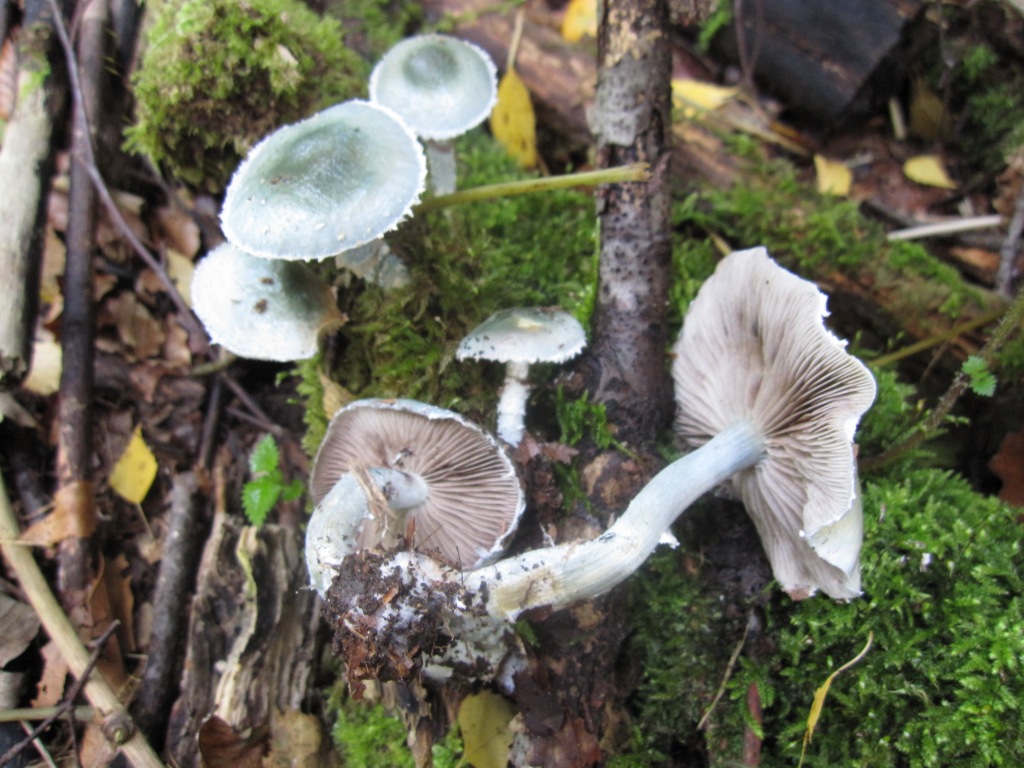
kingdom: Fungi
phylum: Basidiomycota
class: Agaricomycetes
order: Agaricales
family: Strophariaceae
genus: Stropharia
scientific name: Stropharia cyanea
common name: blågrøn bredblad
